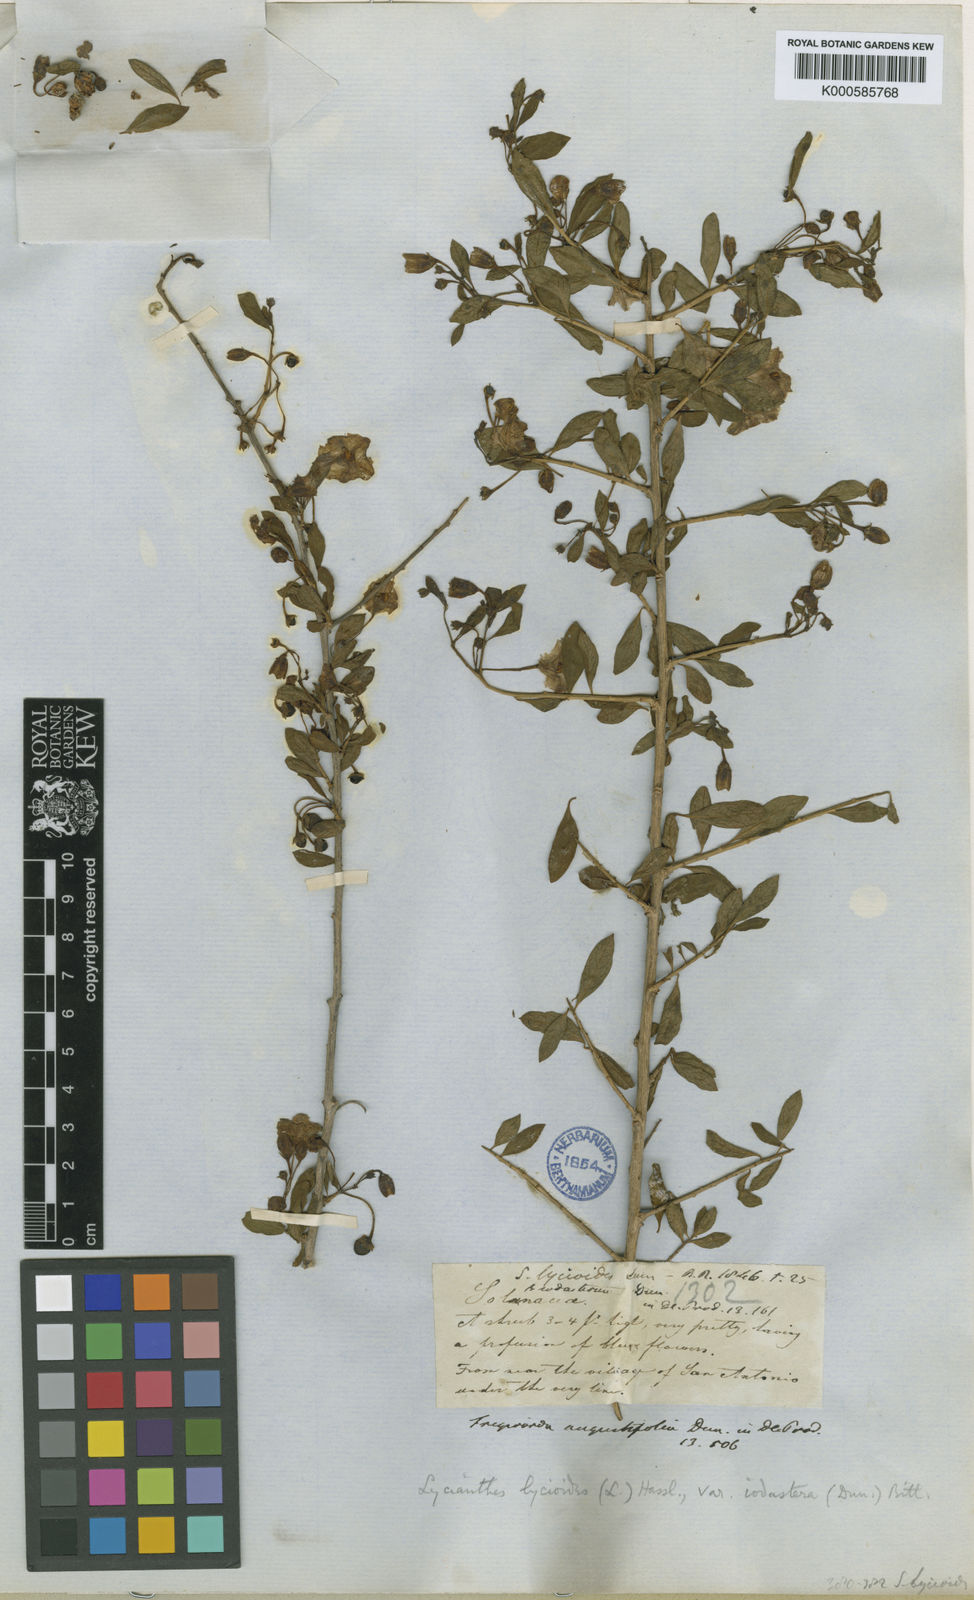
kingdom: Plantae
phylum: Tracheophyta
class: Magnoliopsida
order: Solanales
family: Solanaceae
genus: Lycianthes
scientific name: Lycianthes lycioides
